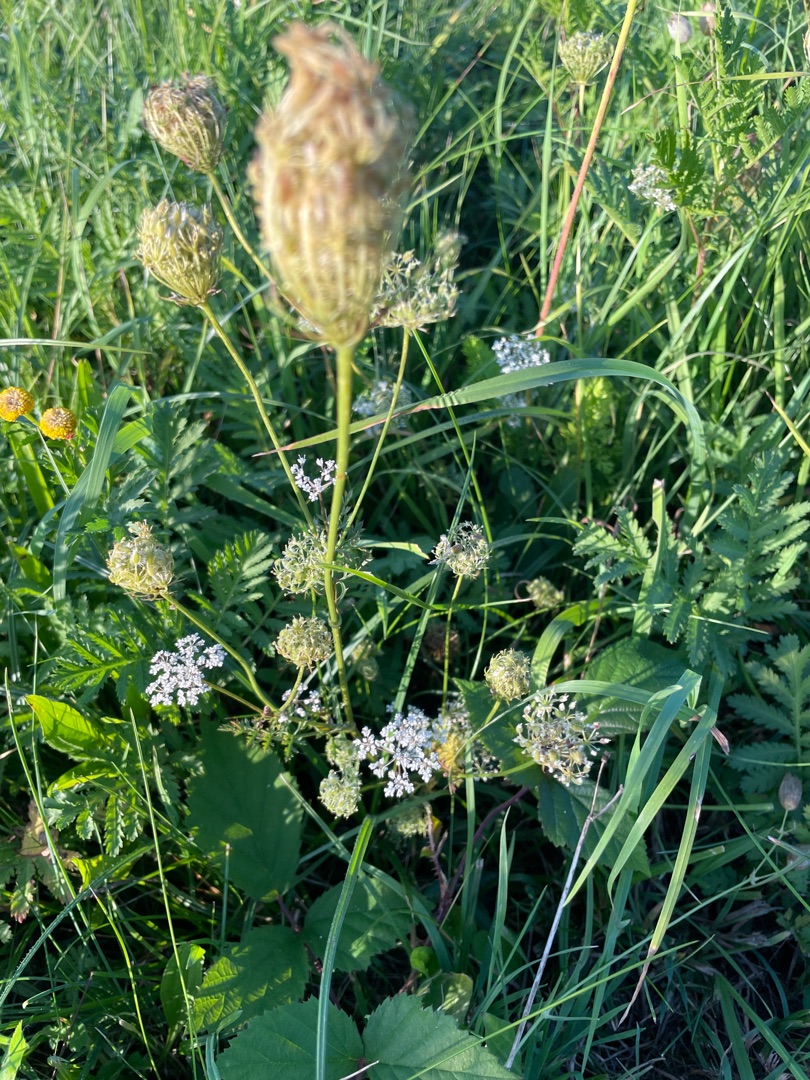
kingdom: Plantae
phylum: Tracheophyta
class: Magnoliopsida
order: Apiales
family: Apiaceae
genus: Daucus
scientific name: Daucus carota
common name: Gulerod
